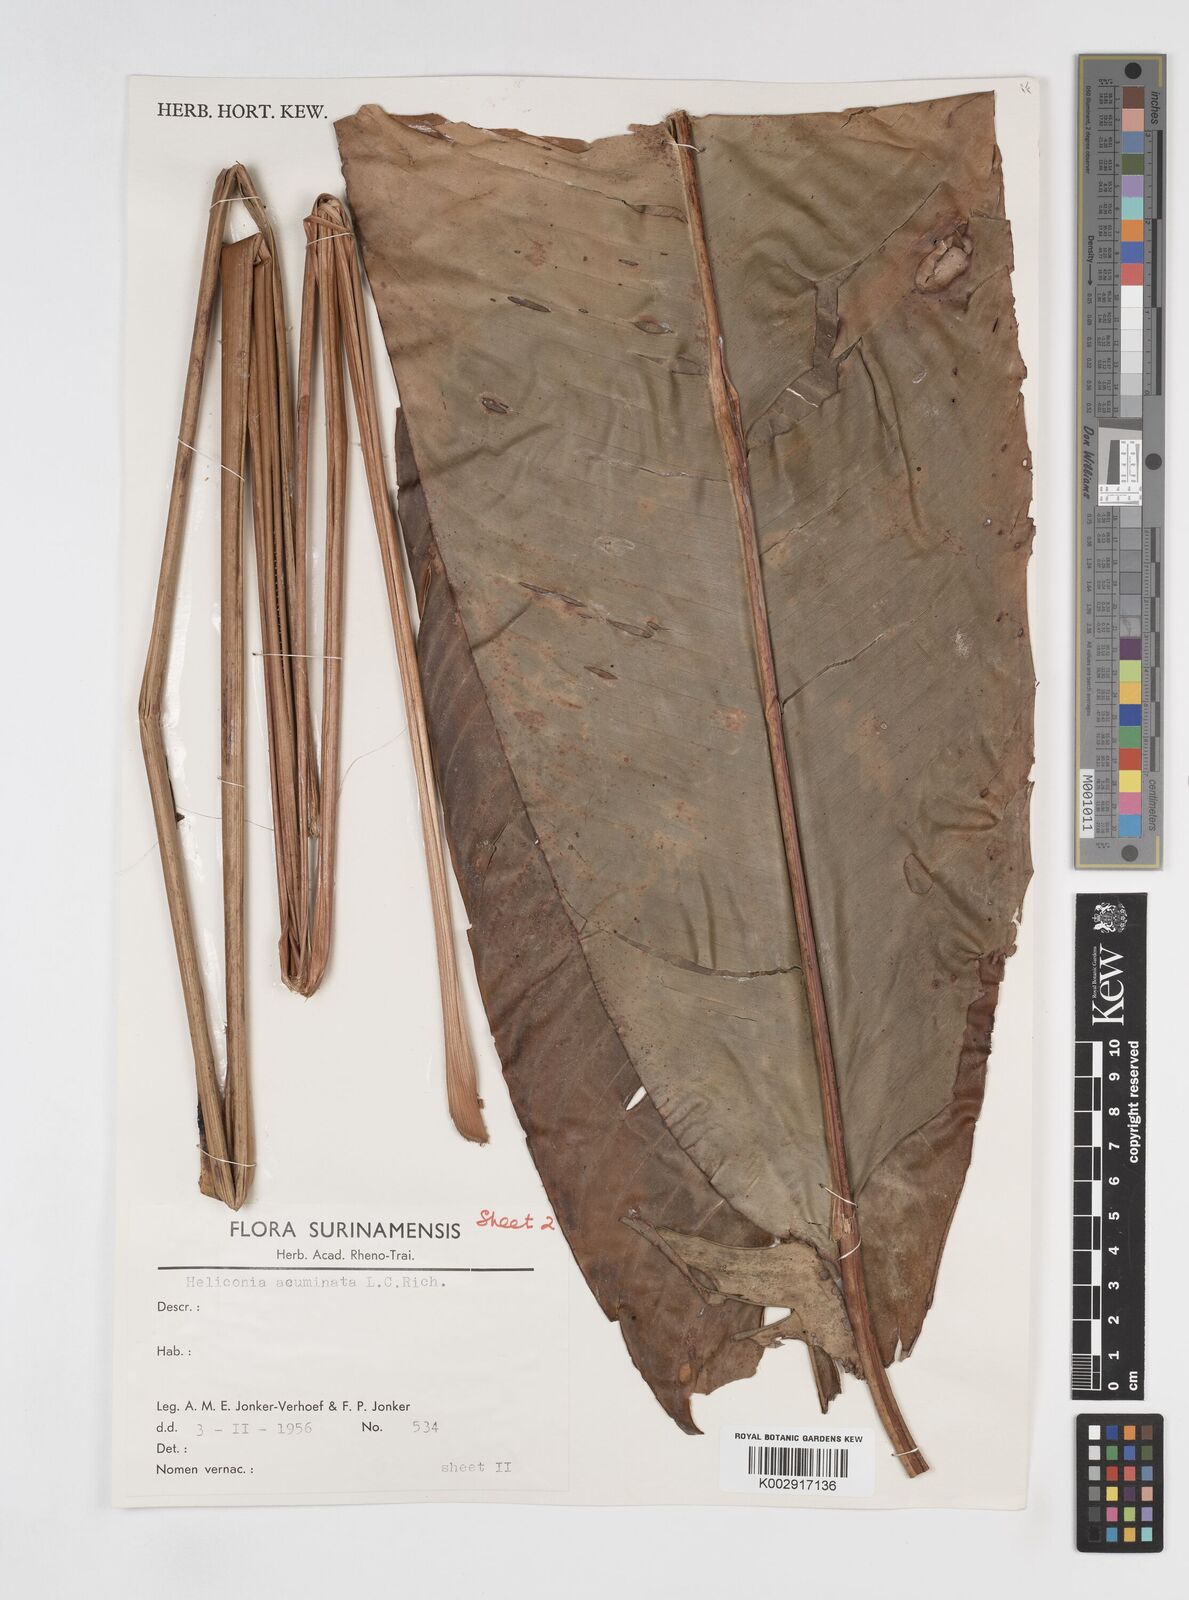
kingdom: Plantae
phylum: Tracheophyta
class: Liliopsida
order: Zingiberales
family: Heliconiaceae
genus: Heliconia
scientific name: Heliconia acuminata
